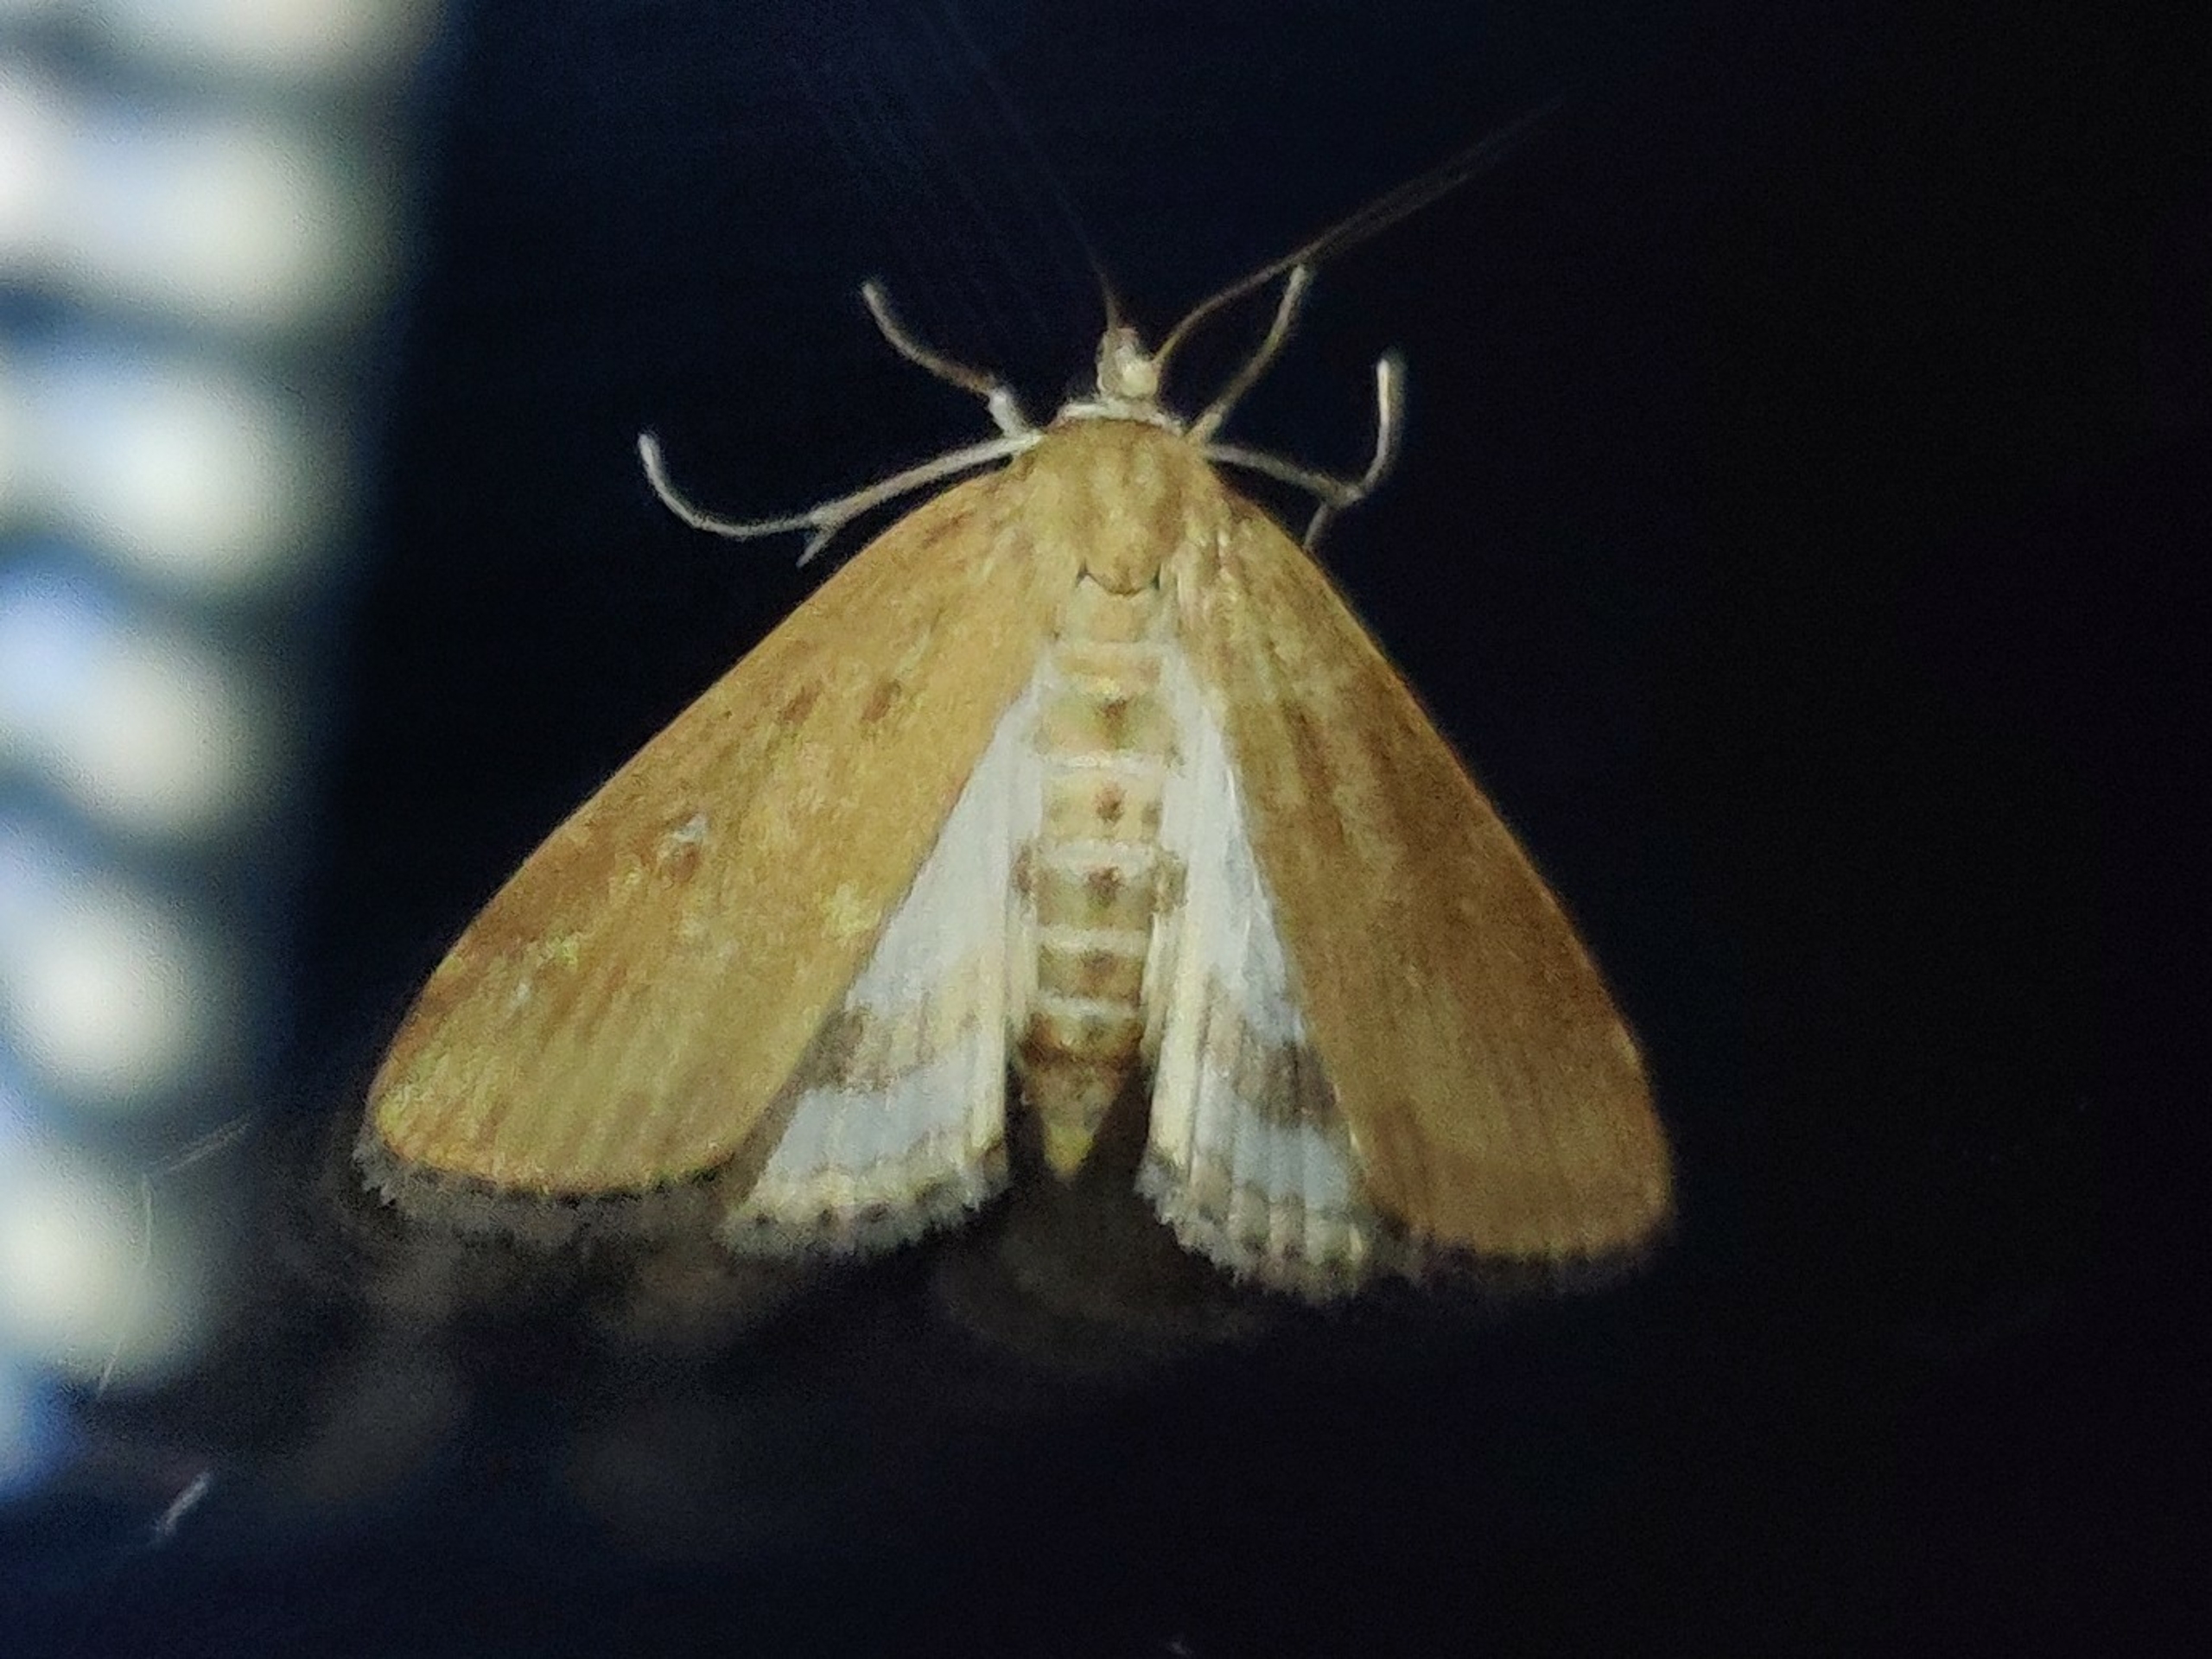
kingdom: Animalia
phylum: Arthropoda
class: Insecta
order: Lepidoptera
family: Crambidae
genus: Parapoynx
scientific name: Parapoynx stratiotata
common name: Vandpesthalvmøl
